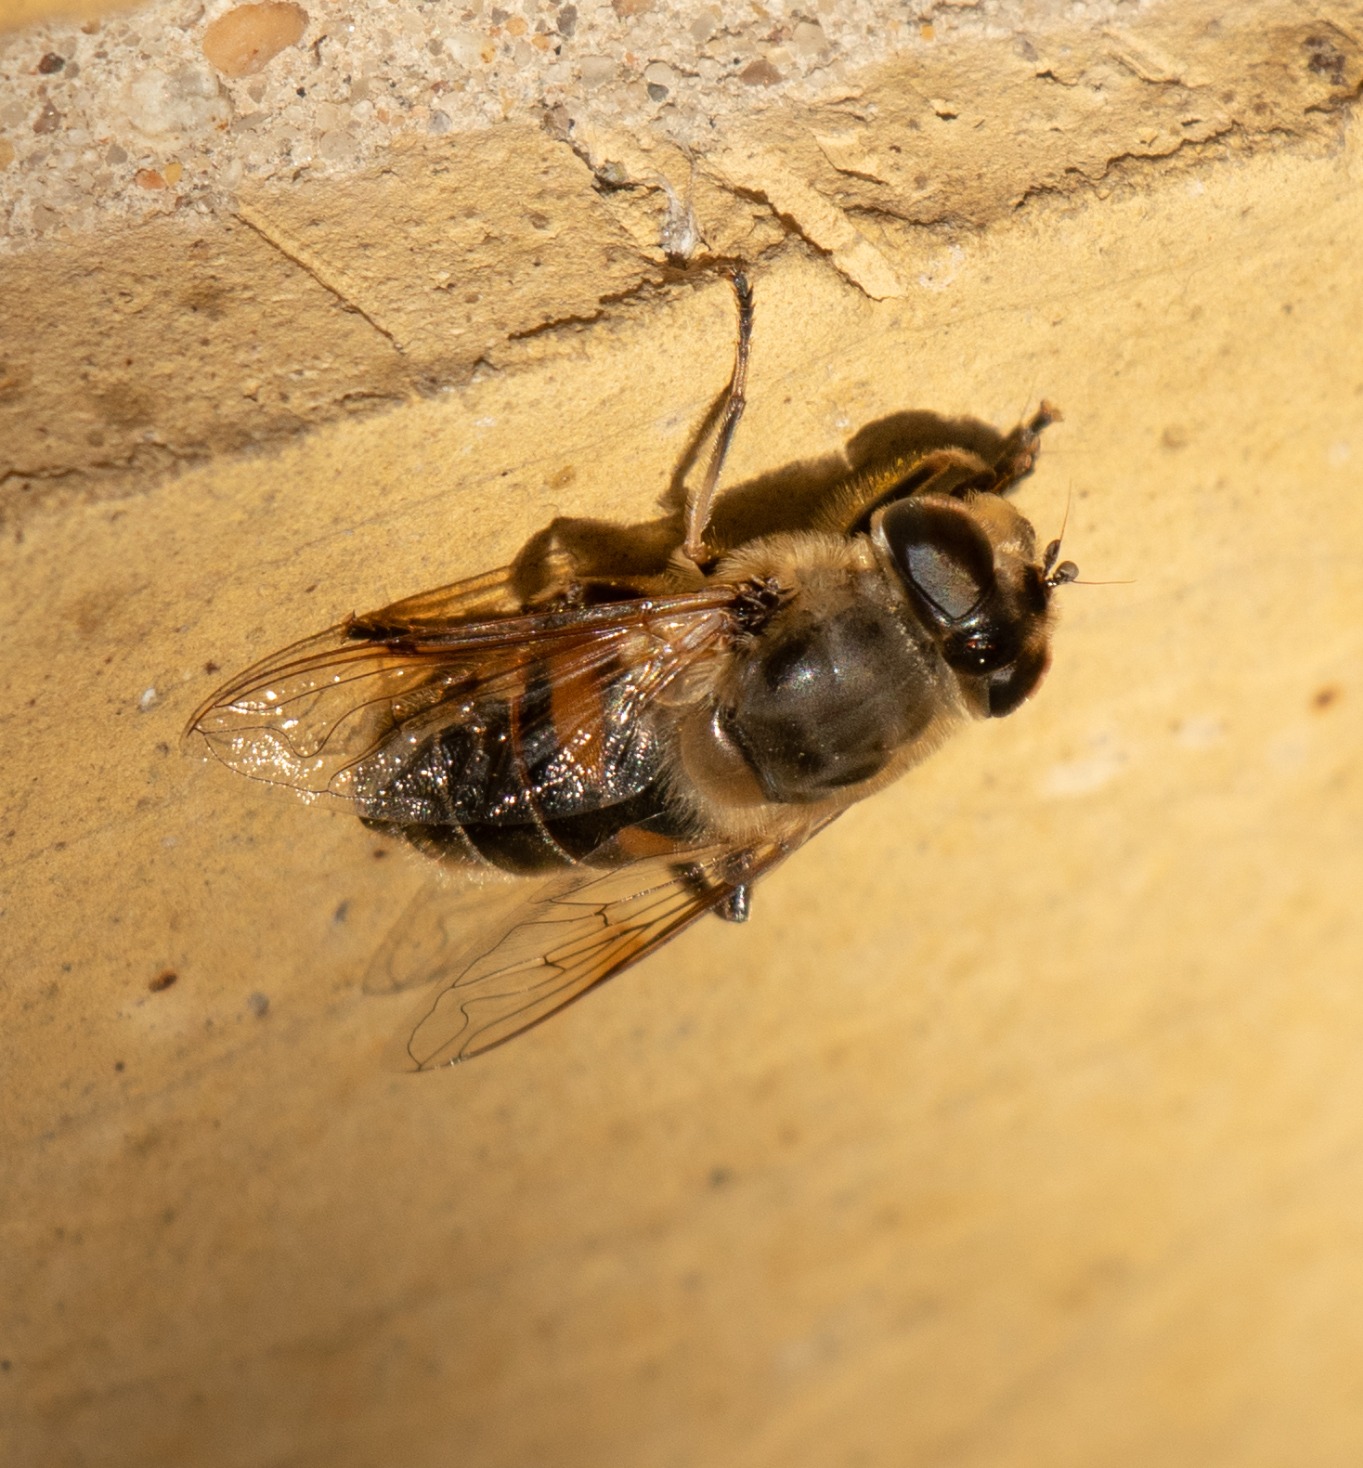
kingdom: Animalia
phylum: Arthropoda
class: Insecta
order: Diptera
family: Syrphidae
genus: Eristalis
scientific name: Eristalis tenax
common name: Droneflue
